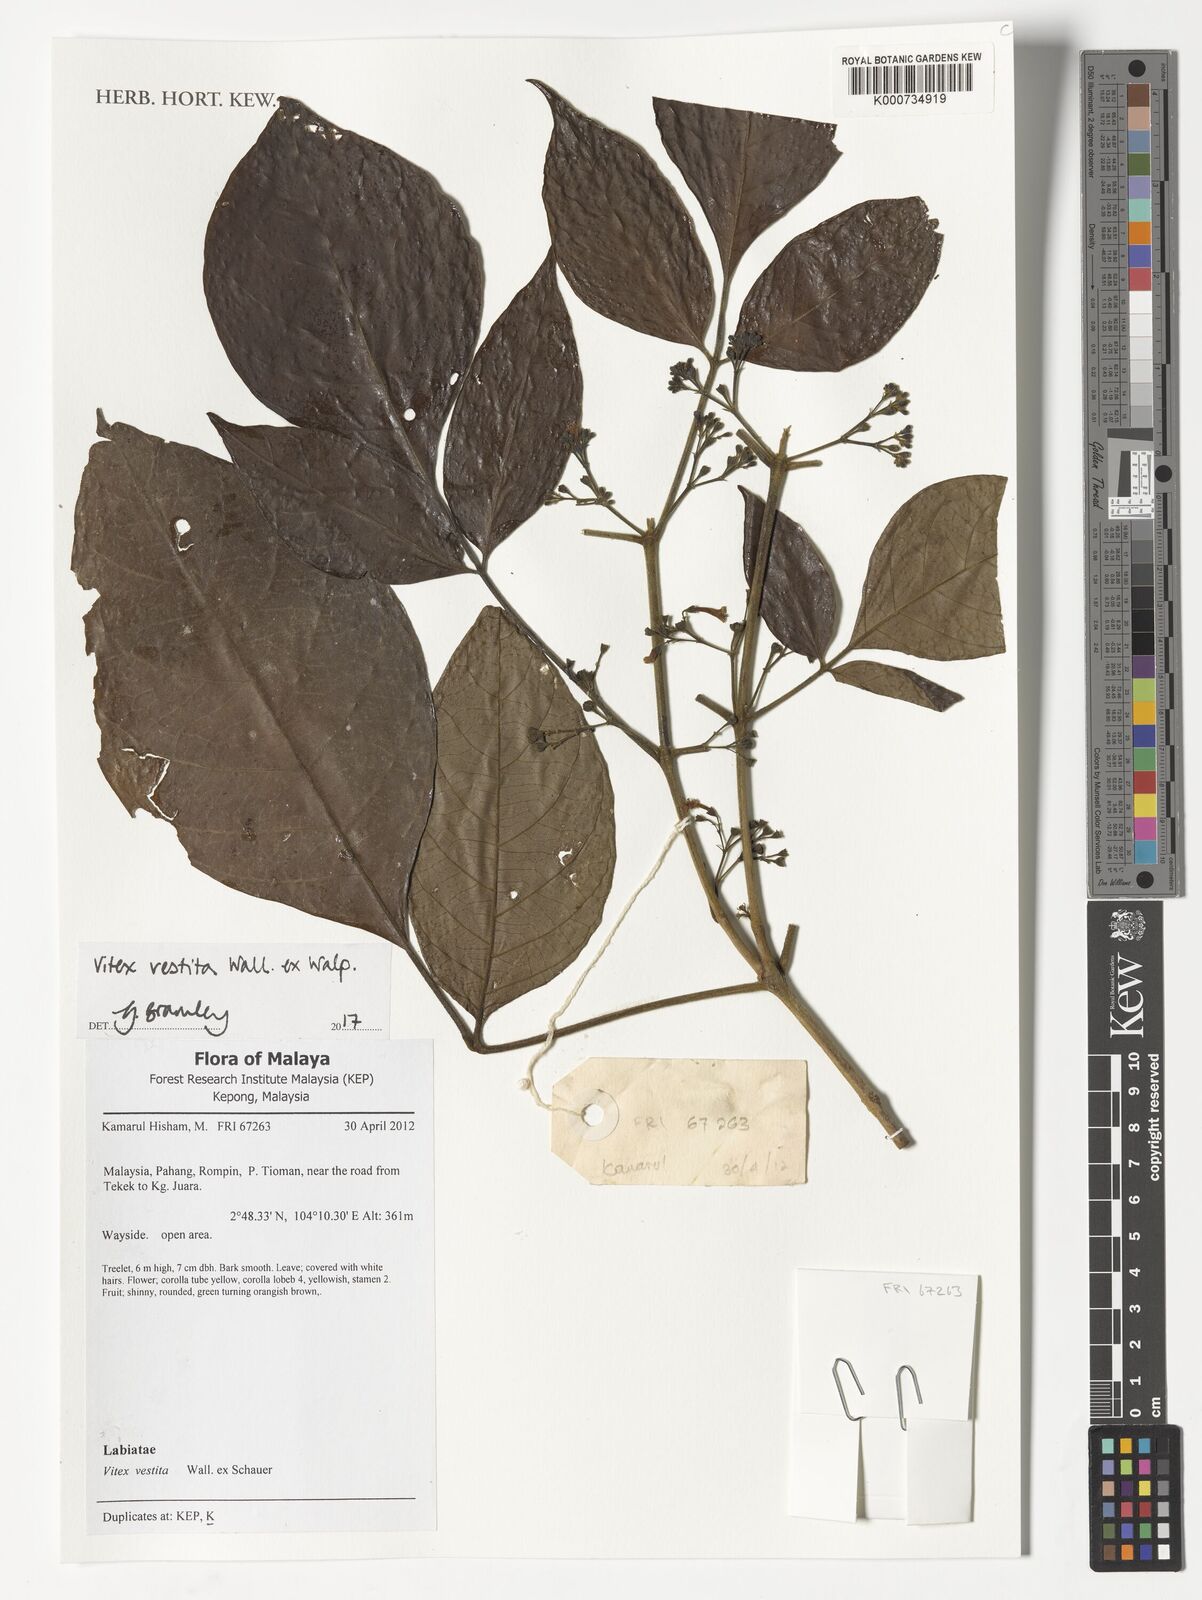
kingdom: Plantae
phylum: Tracheophyta
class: Magnoliopsida
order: Lamiales
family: Lamiaceae
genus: Vitex
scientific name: Vitex vestita
